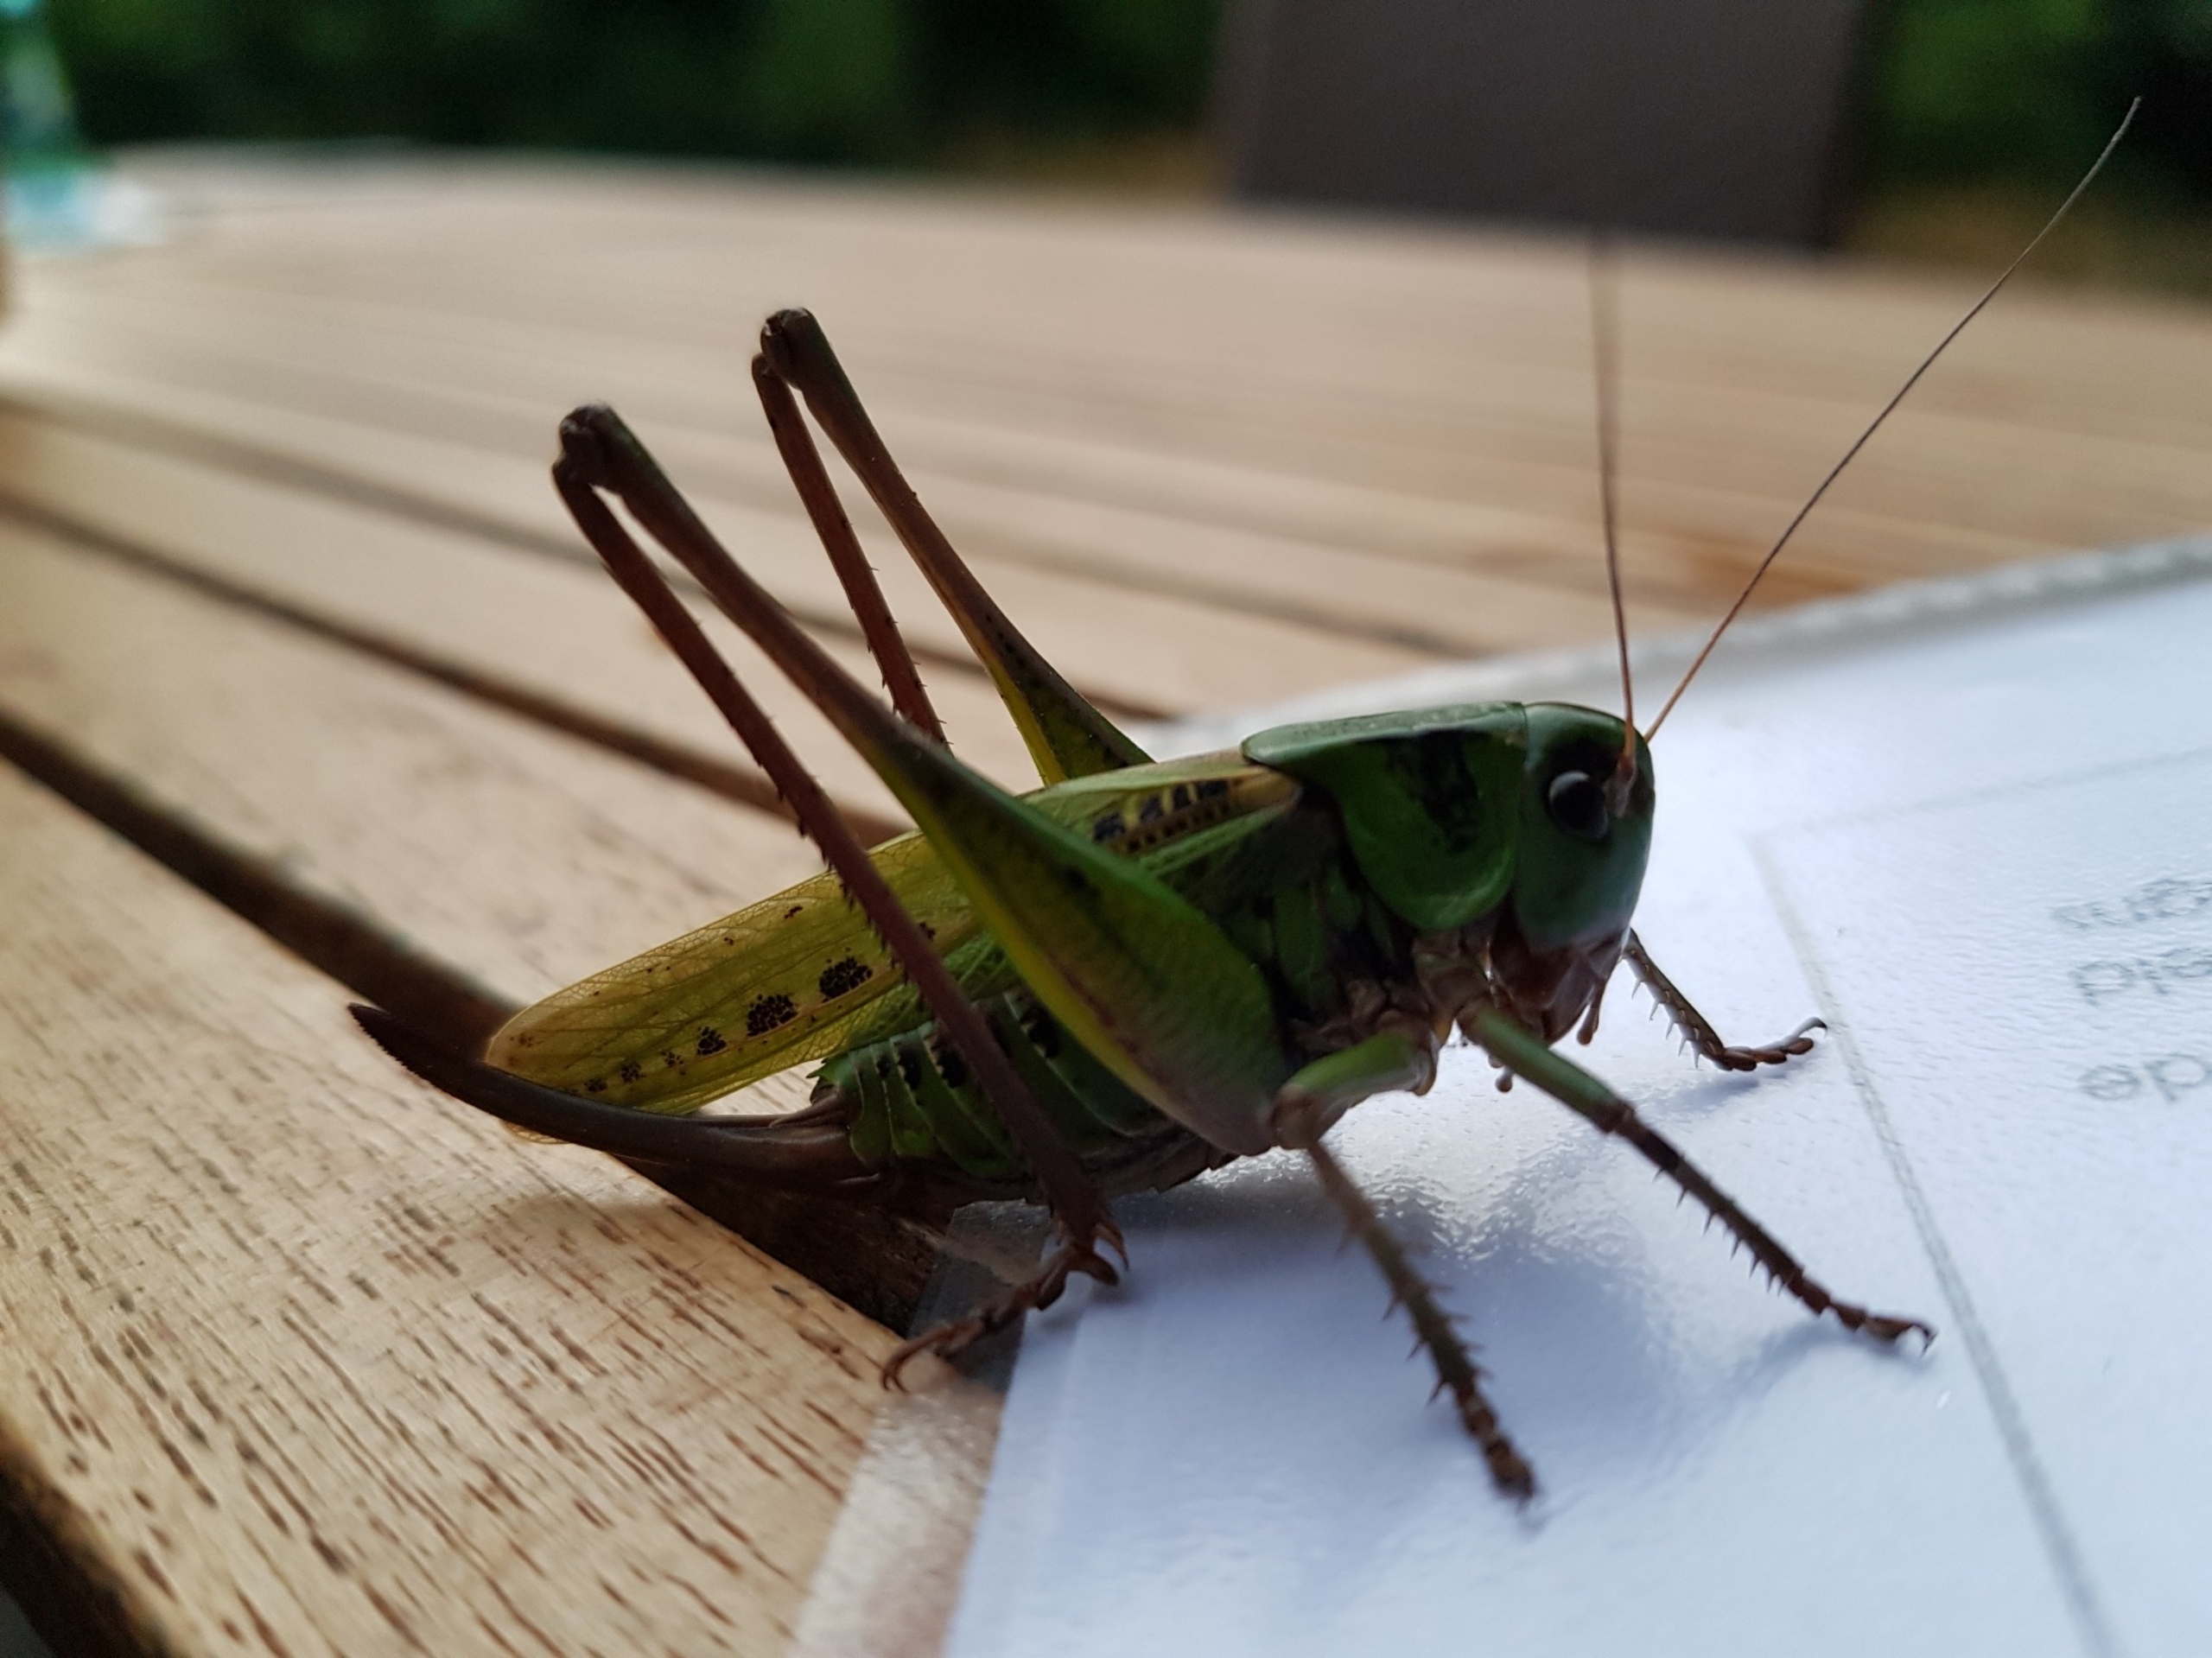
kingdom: Animalia
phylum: Arthropoda
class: Insecta
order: Orthoptera
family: Tettigoniidae
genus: Decticus
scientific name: Decticus verrucivorus
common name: Vortebider
